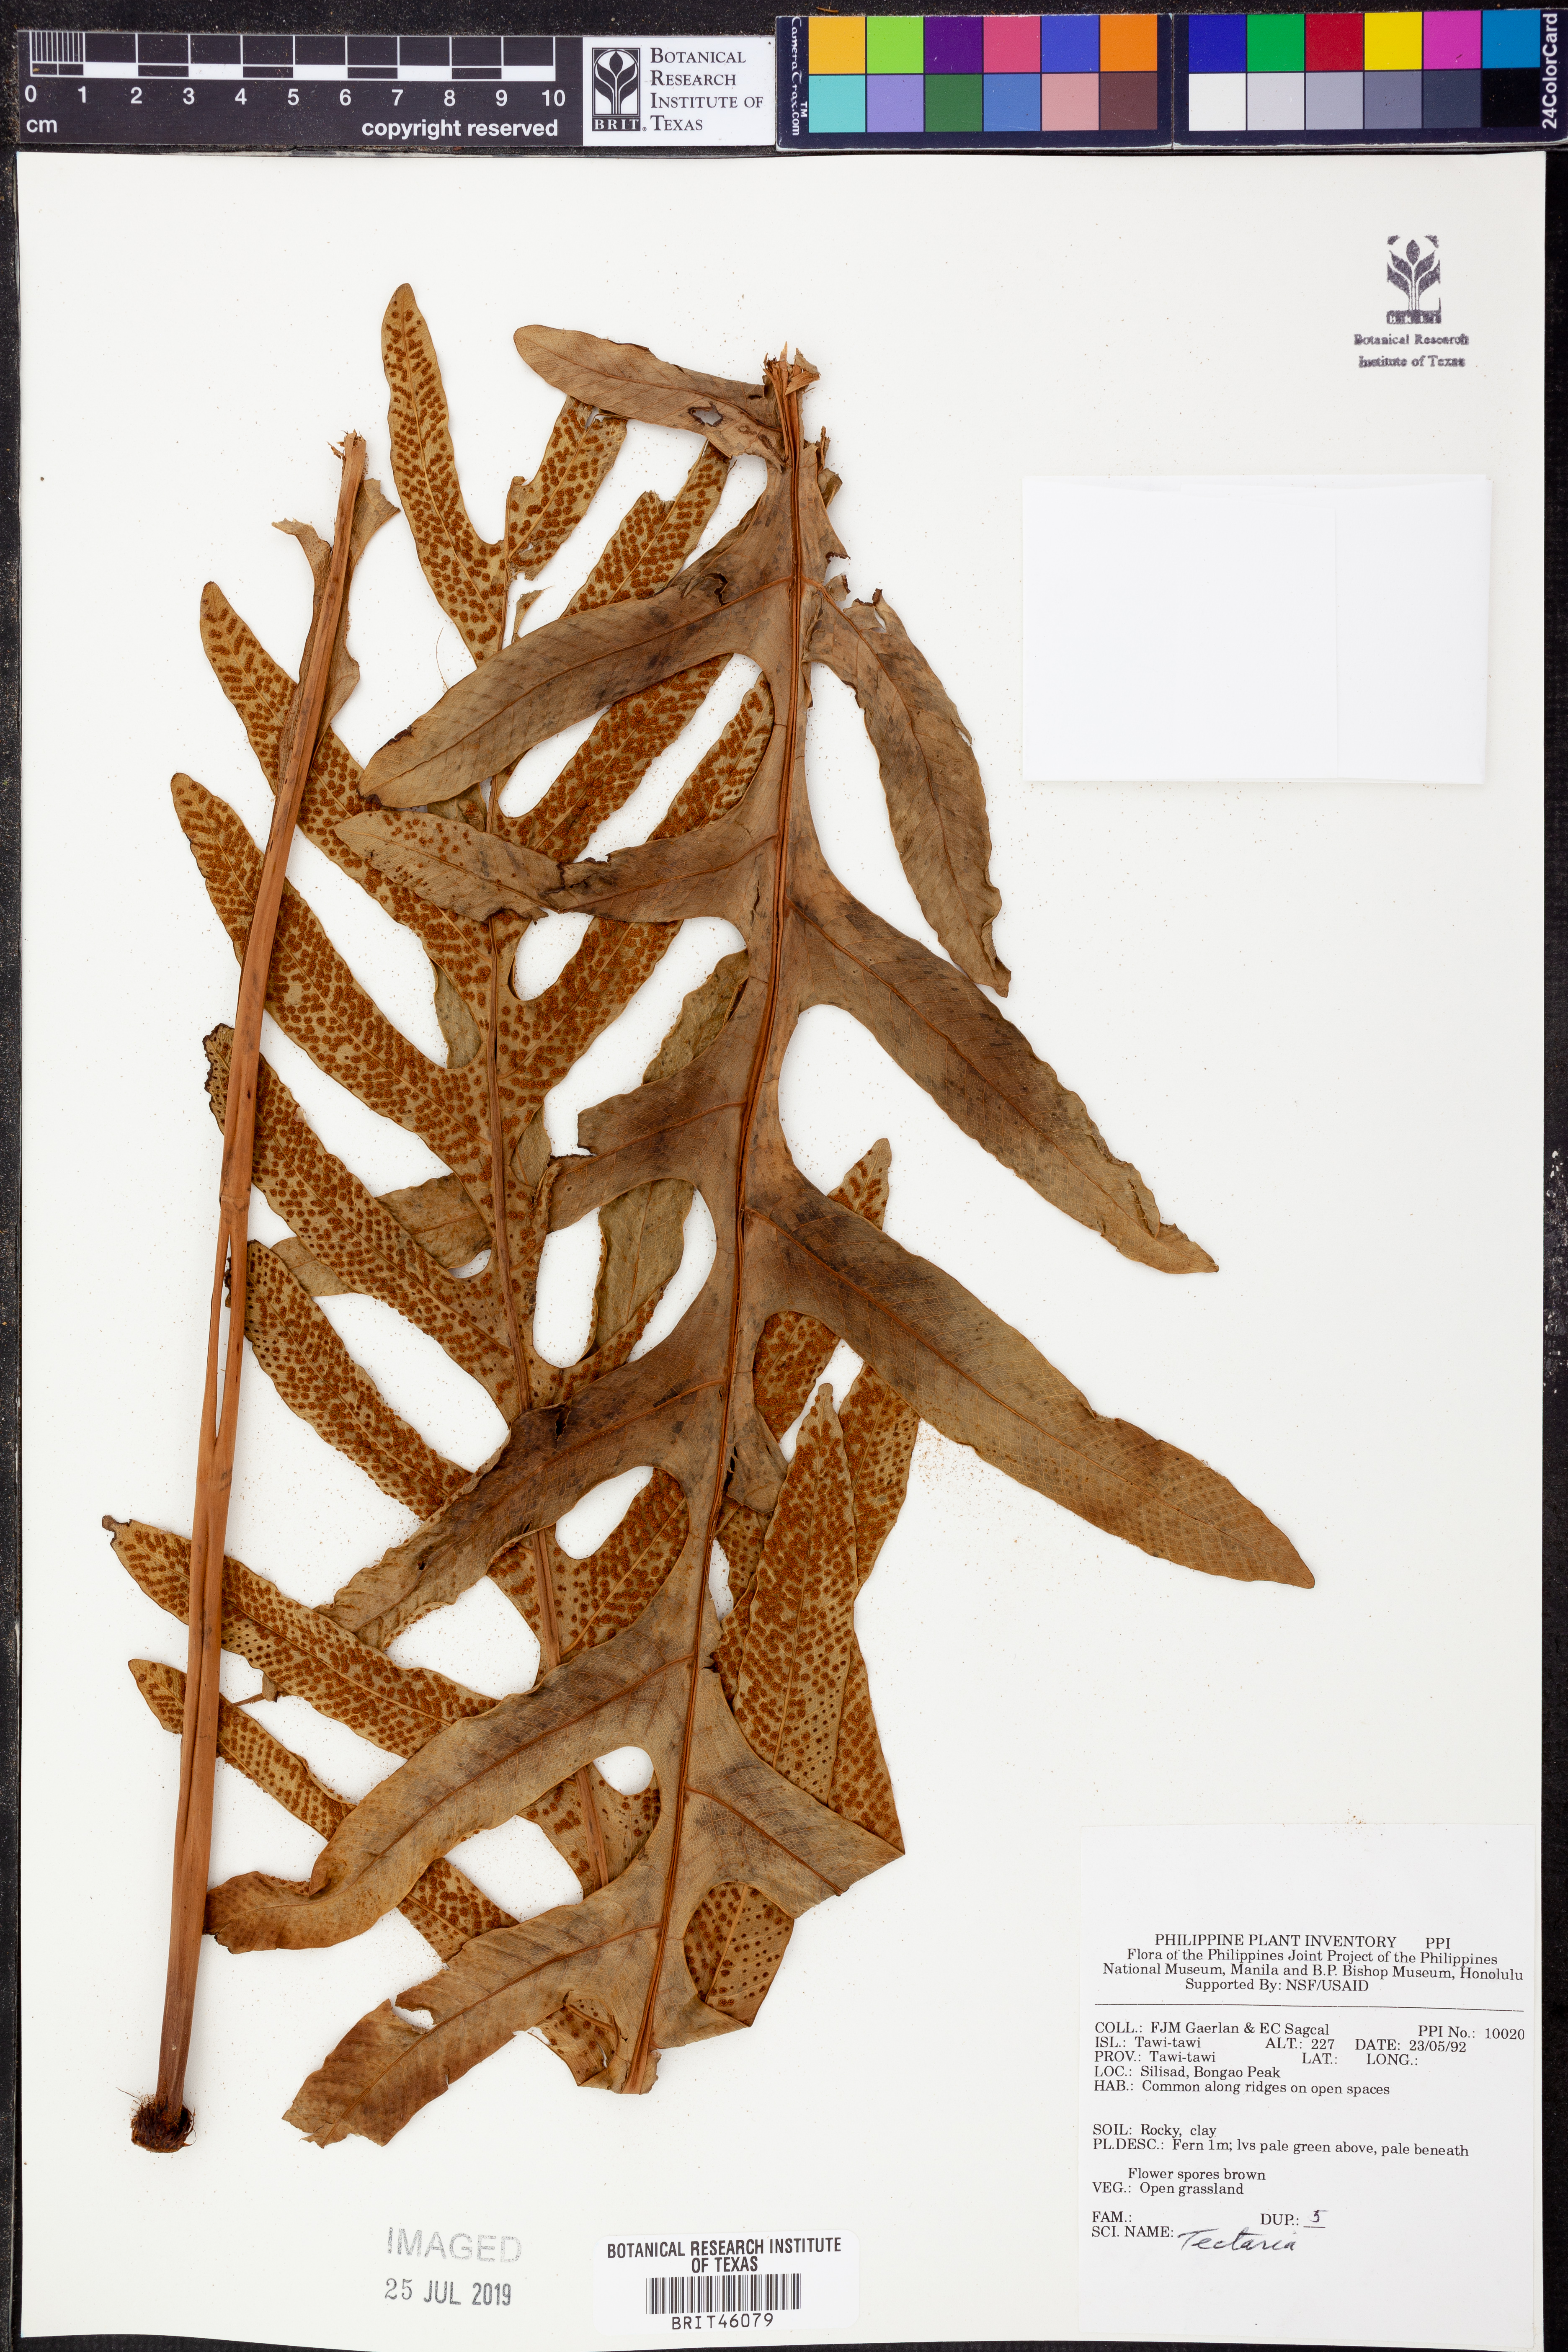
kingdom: Plantae
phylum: Tracheophyta
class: Polypodiopsida
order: Polypodiales
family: Tectariaceae
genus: Tectaria
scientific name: Tectaria
